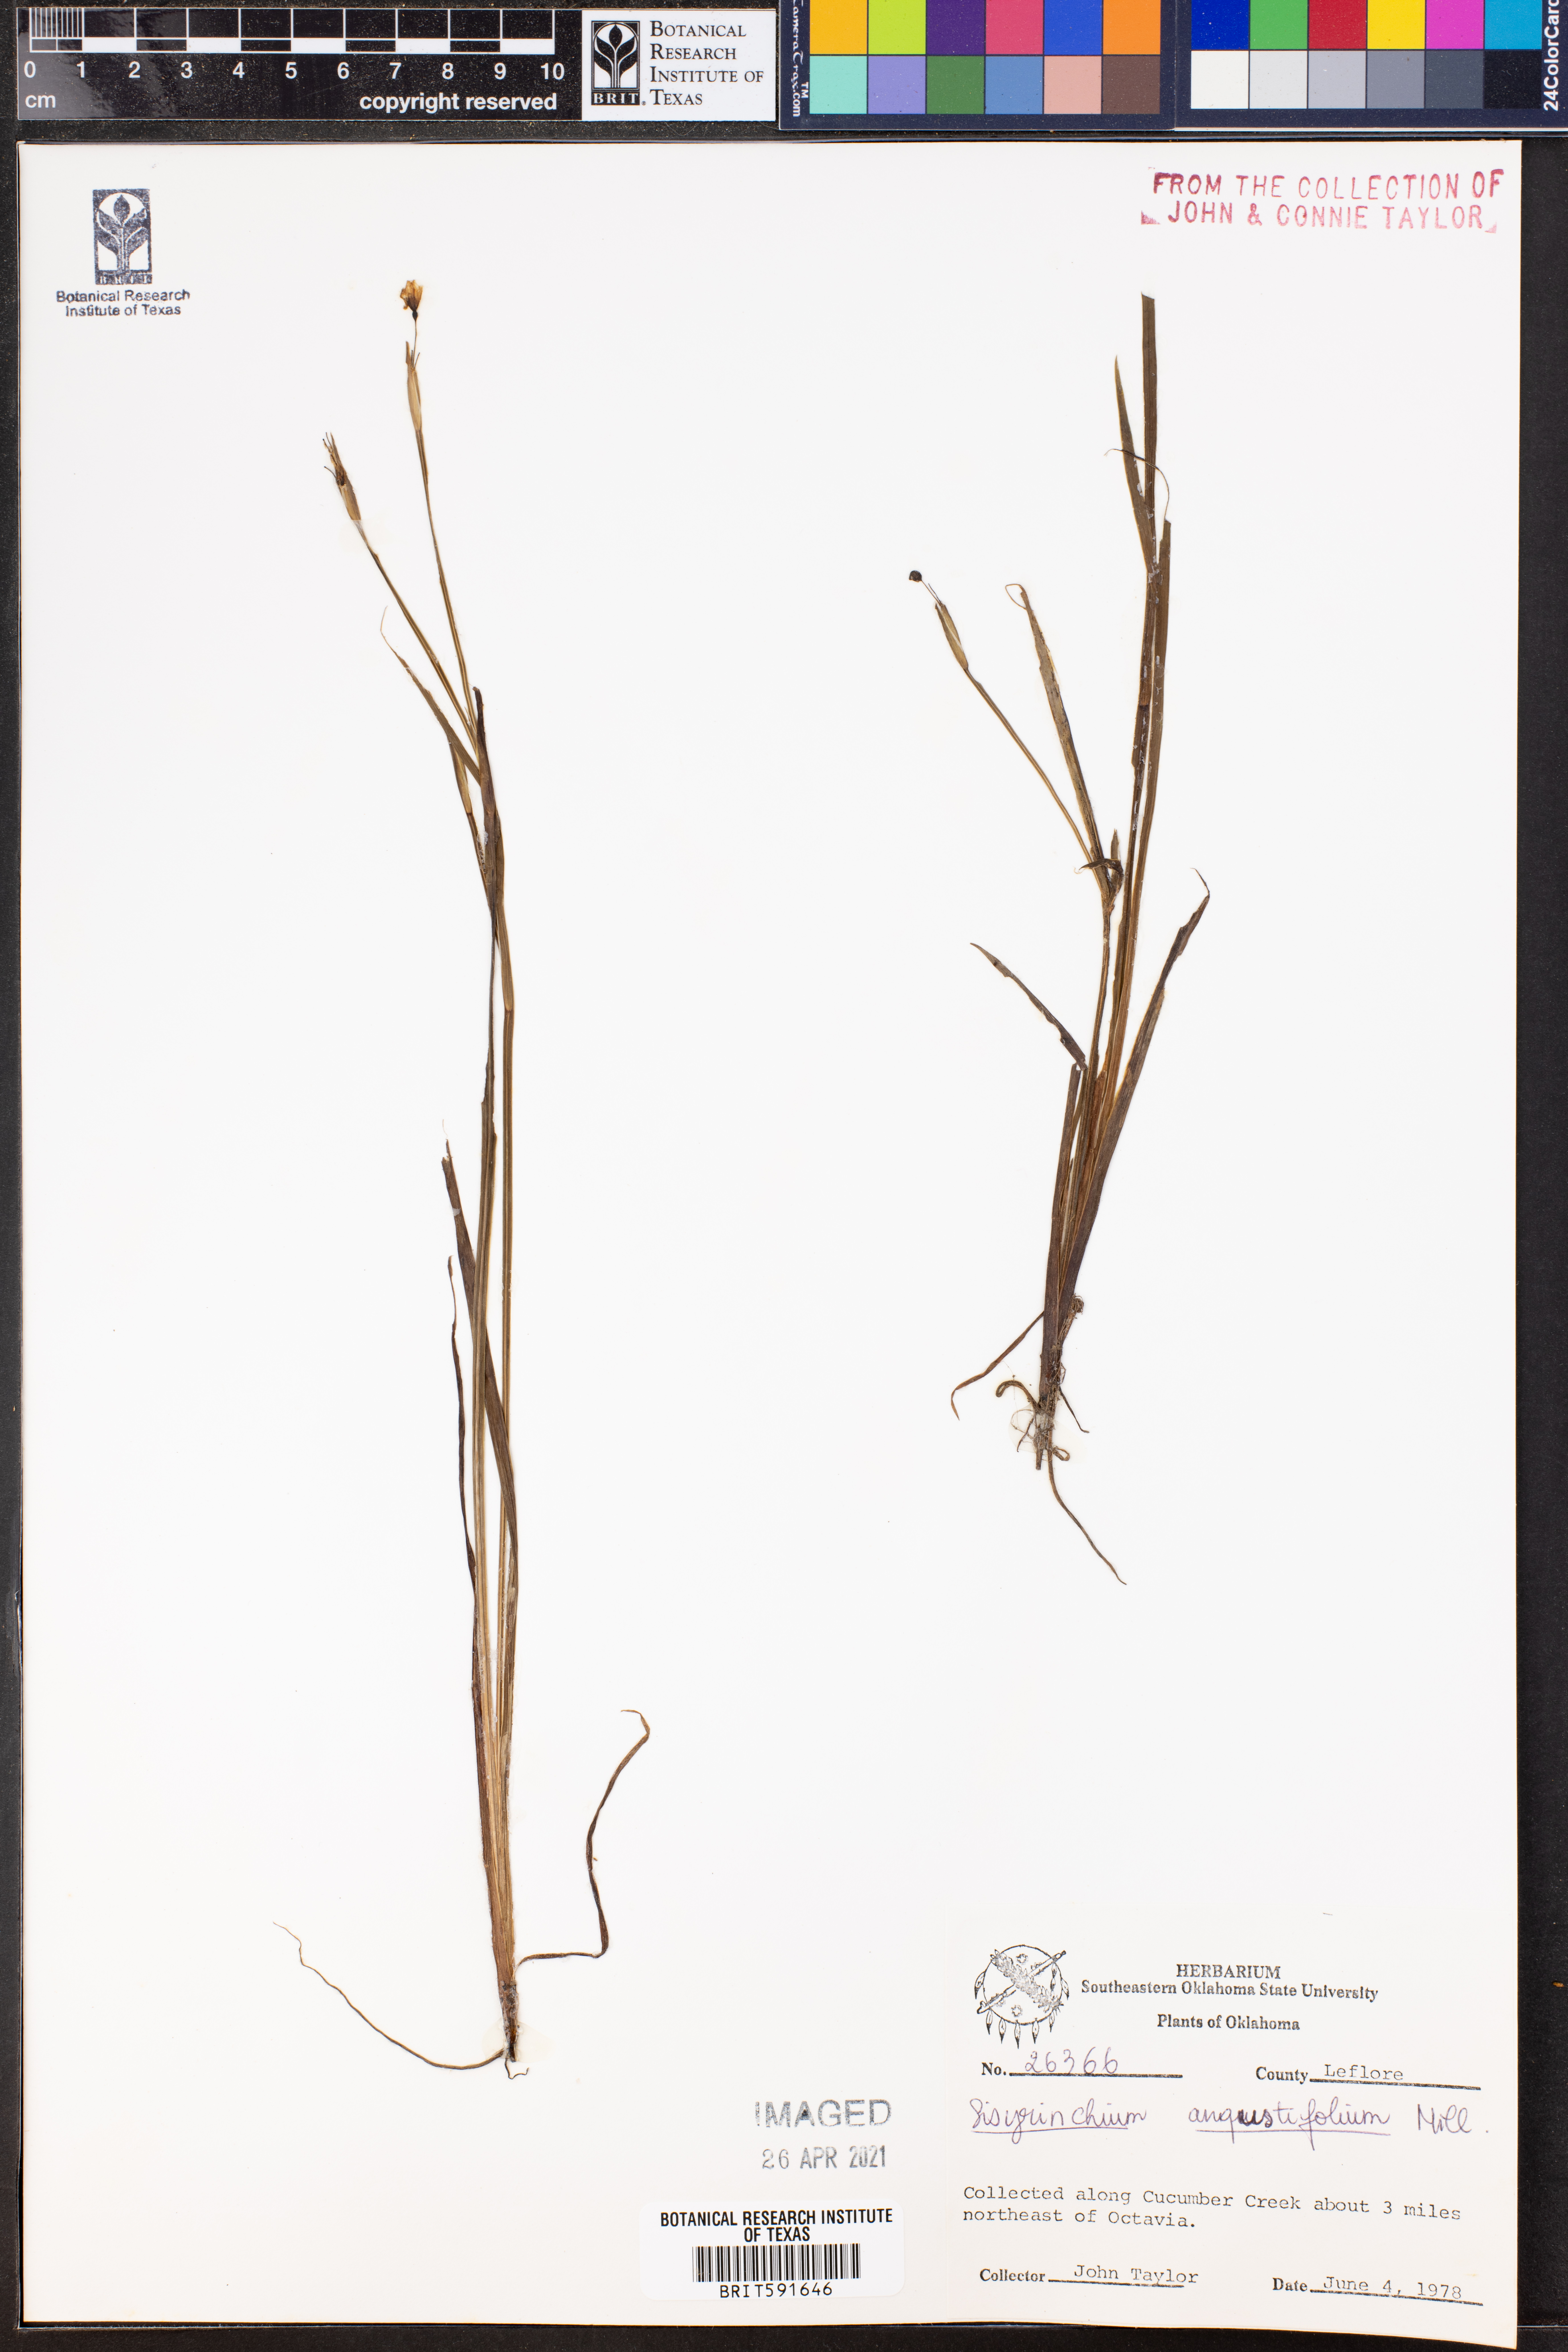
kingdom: Plantae
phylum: Tracheophyta
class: Liliopsida
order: Asparagales
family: Iridaceae
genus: Sisyrinchium
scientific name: Sisyrinchium angustifolium
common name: Narrow-leaf blue-eyed-grass
